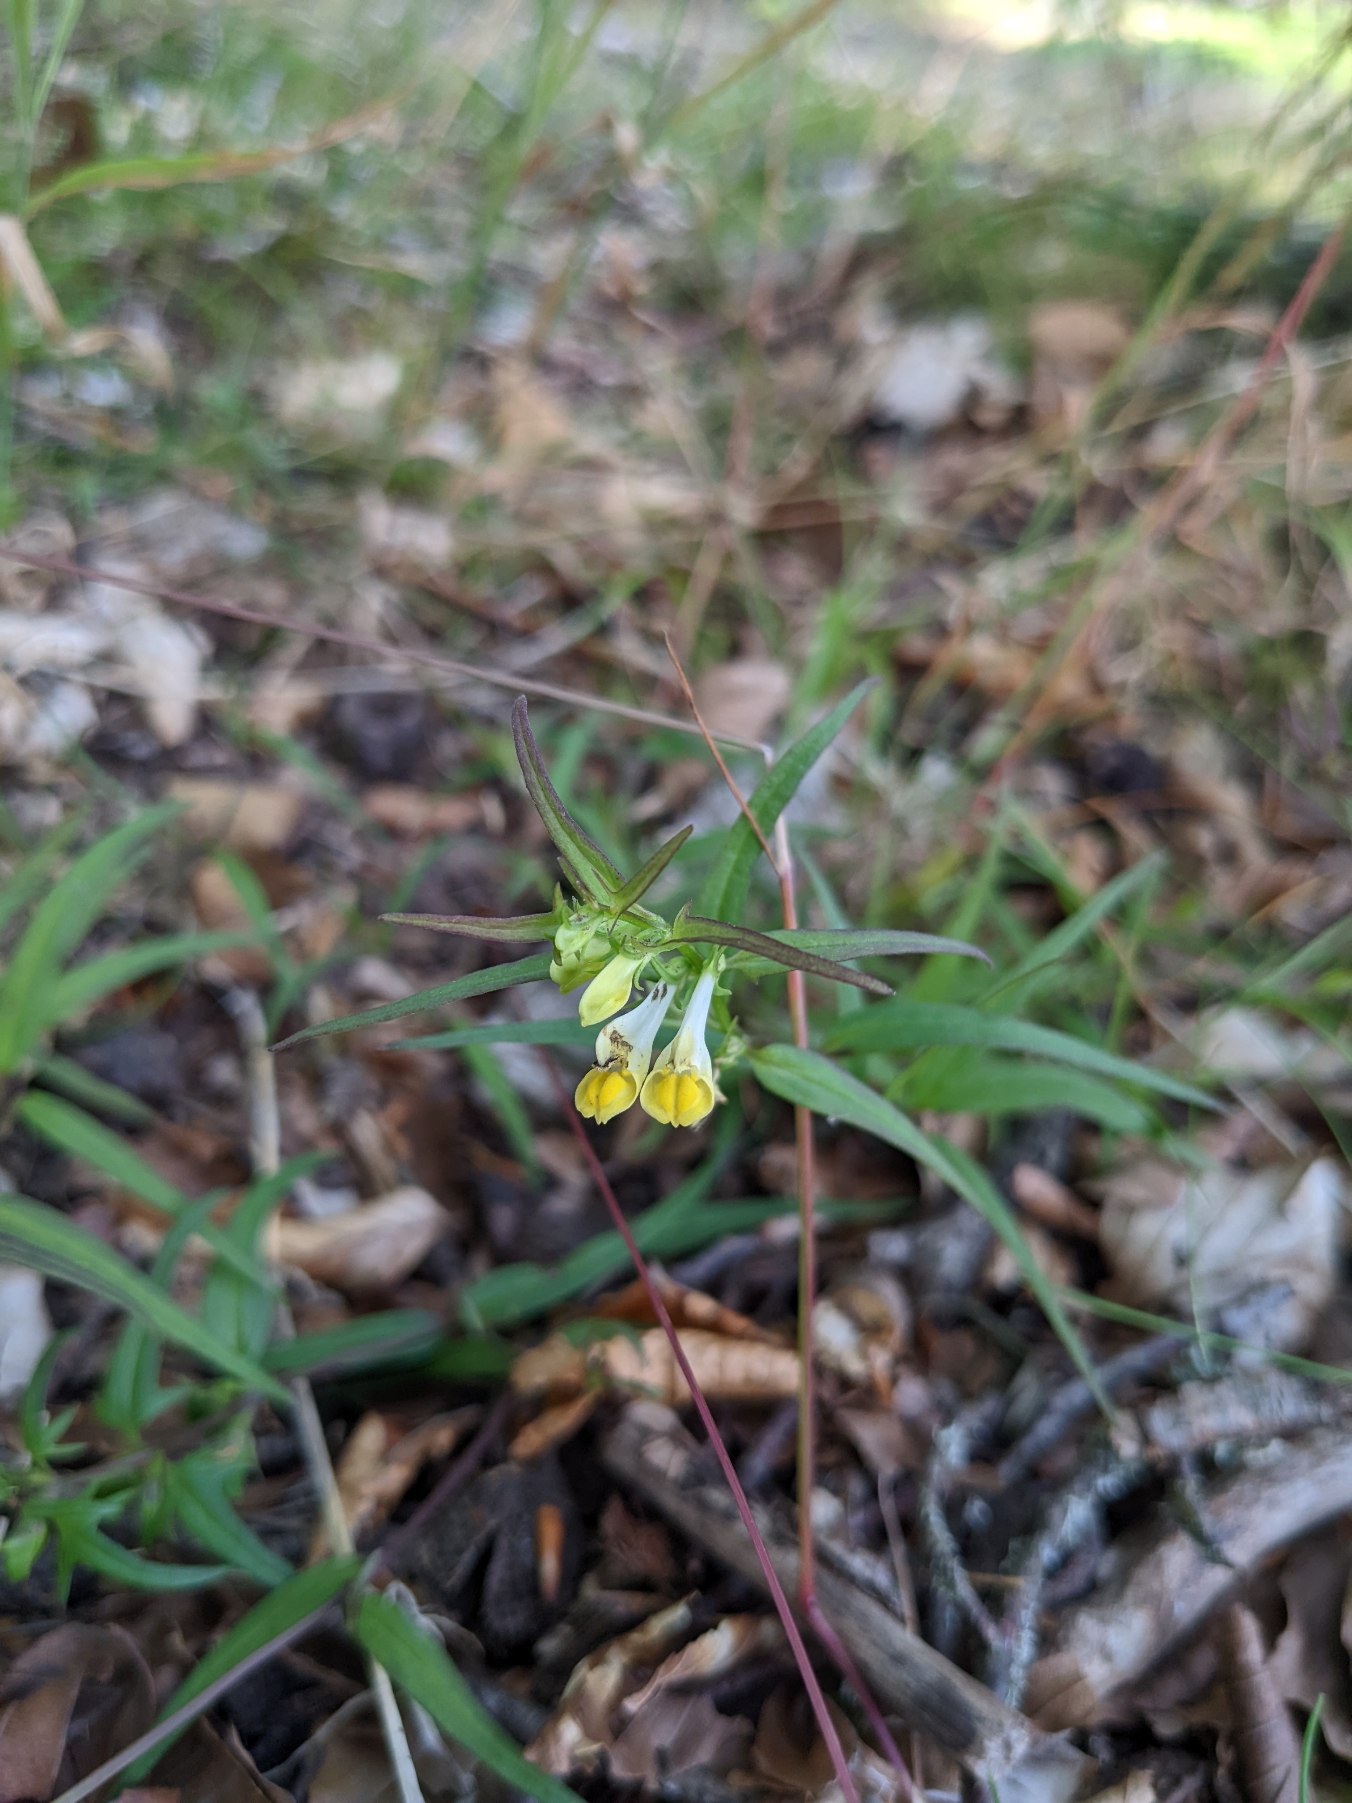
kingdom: Plantae
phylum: Tracheophyta
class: Magnoliopsida
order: Lamiales
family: Orobanchaceae
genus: Melampyrum
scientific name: Melampyrum pratense
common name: Almindelig kohvede
